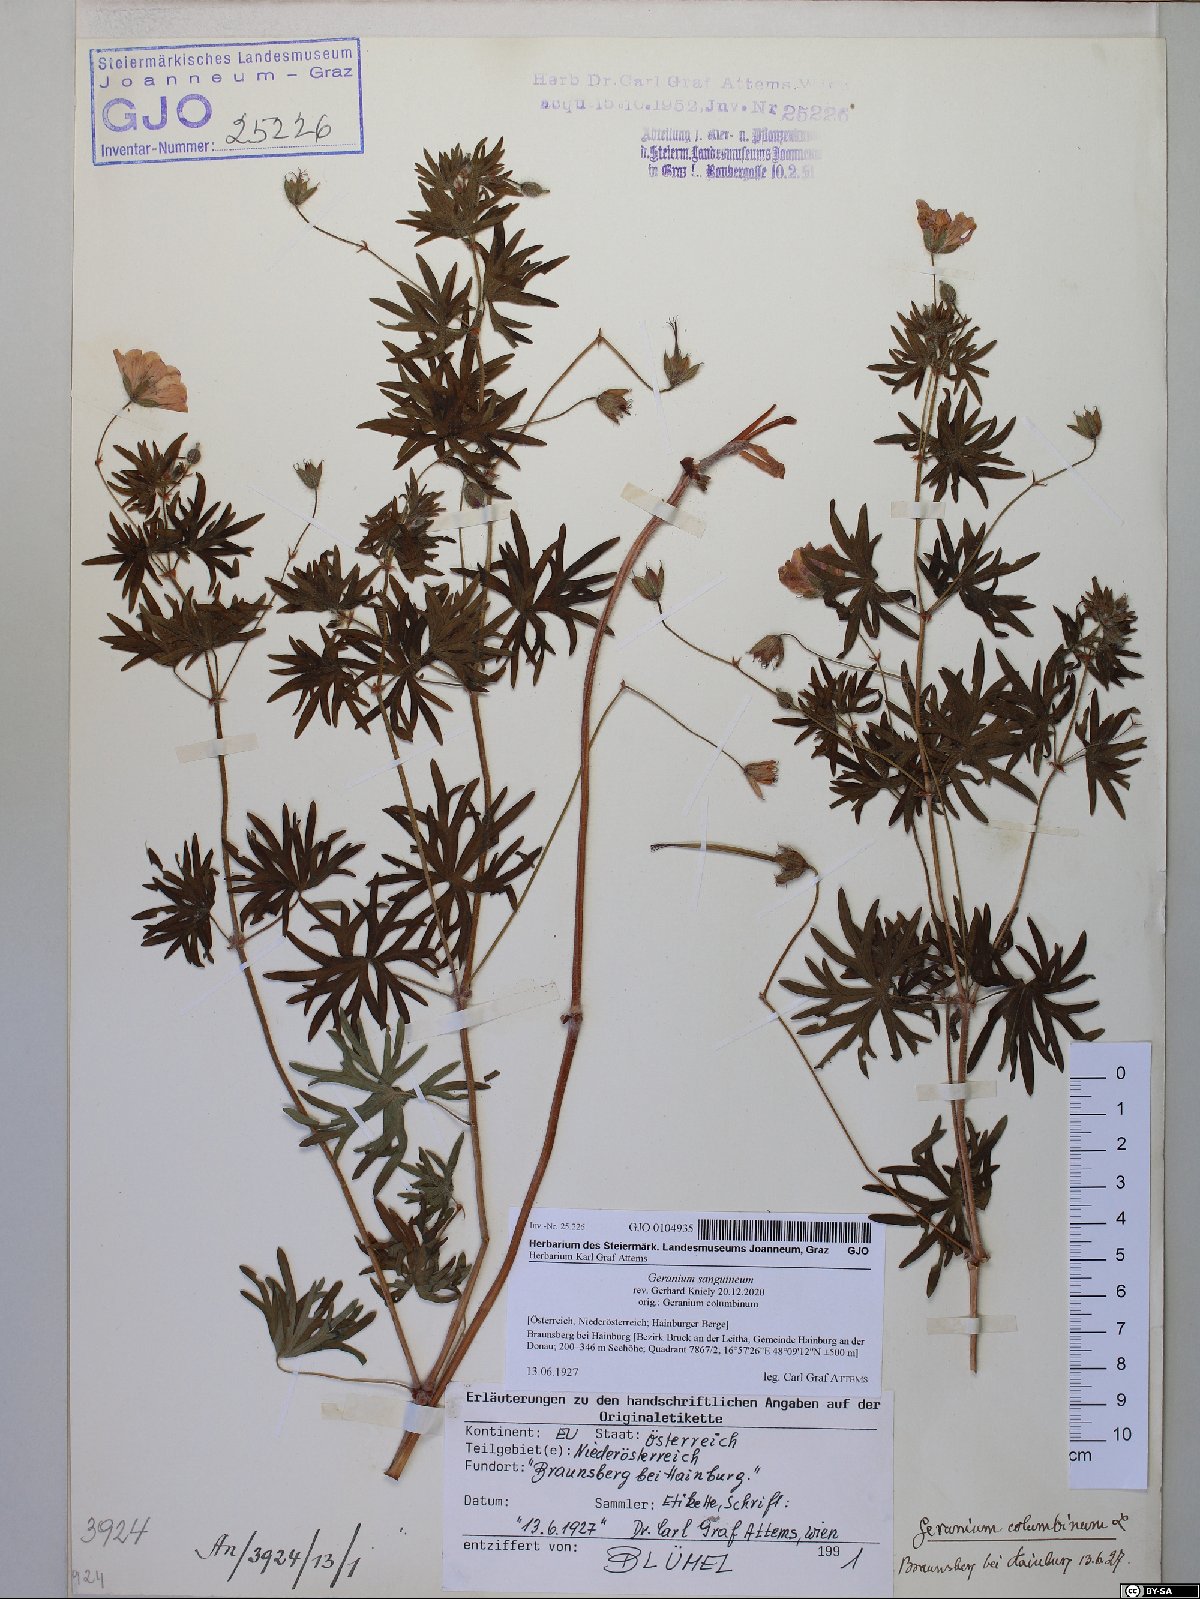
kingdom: Plantae
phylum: Tracheophyta
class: Magnoliopsida
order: Geraniales
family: Geraniaceae
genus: Geranium
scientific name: Geranium sanguineum
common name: Bloody crane's-bill
